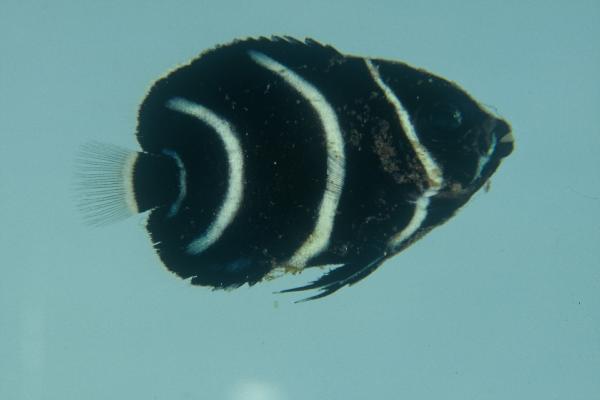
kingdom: Animalia
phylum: Chordata
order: Perciformes
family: Pomacanthidae
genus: Pomacanthus
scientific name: Pomacanthus semicirculatus
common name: Semicircle angelfish
